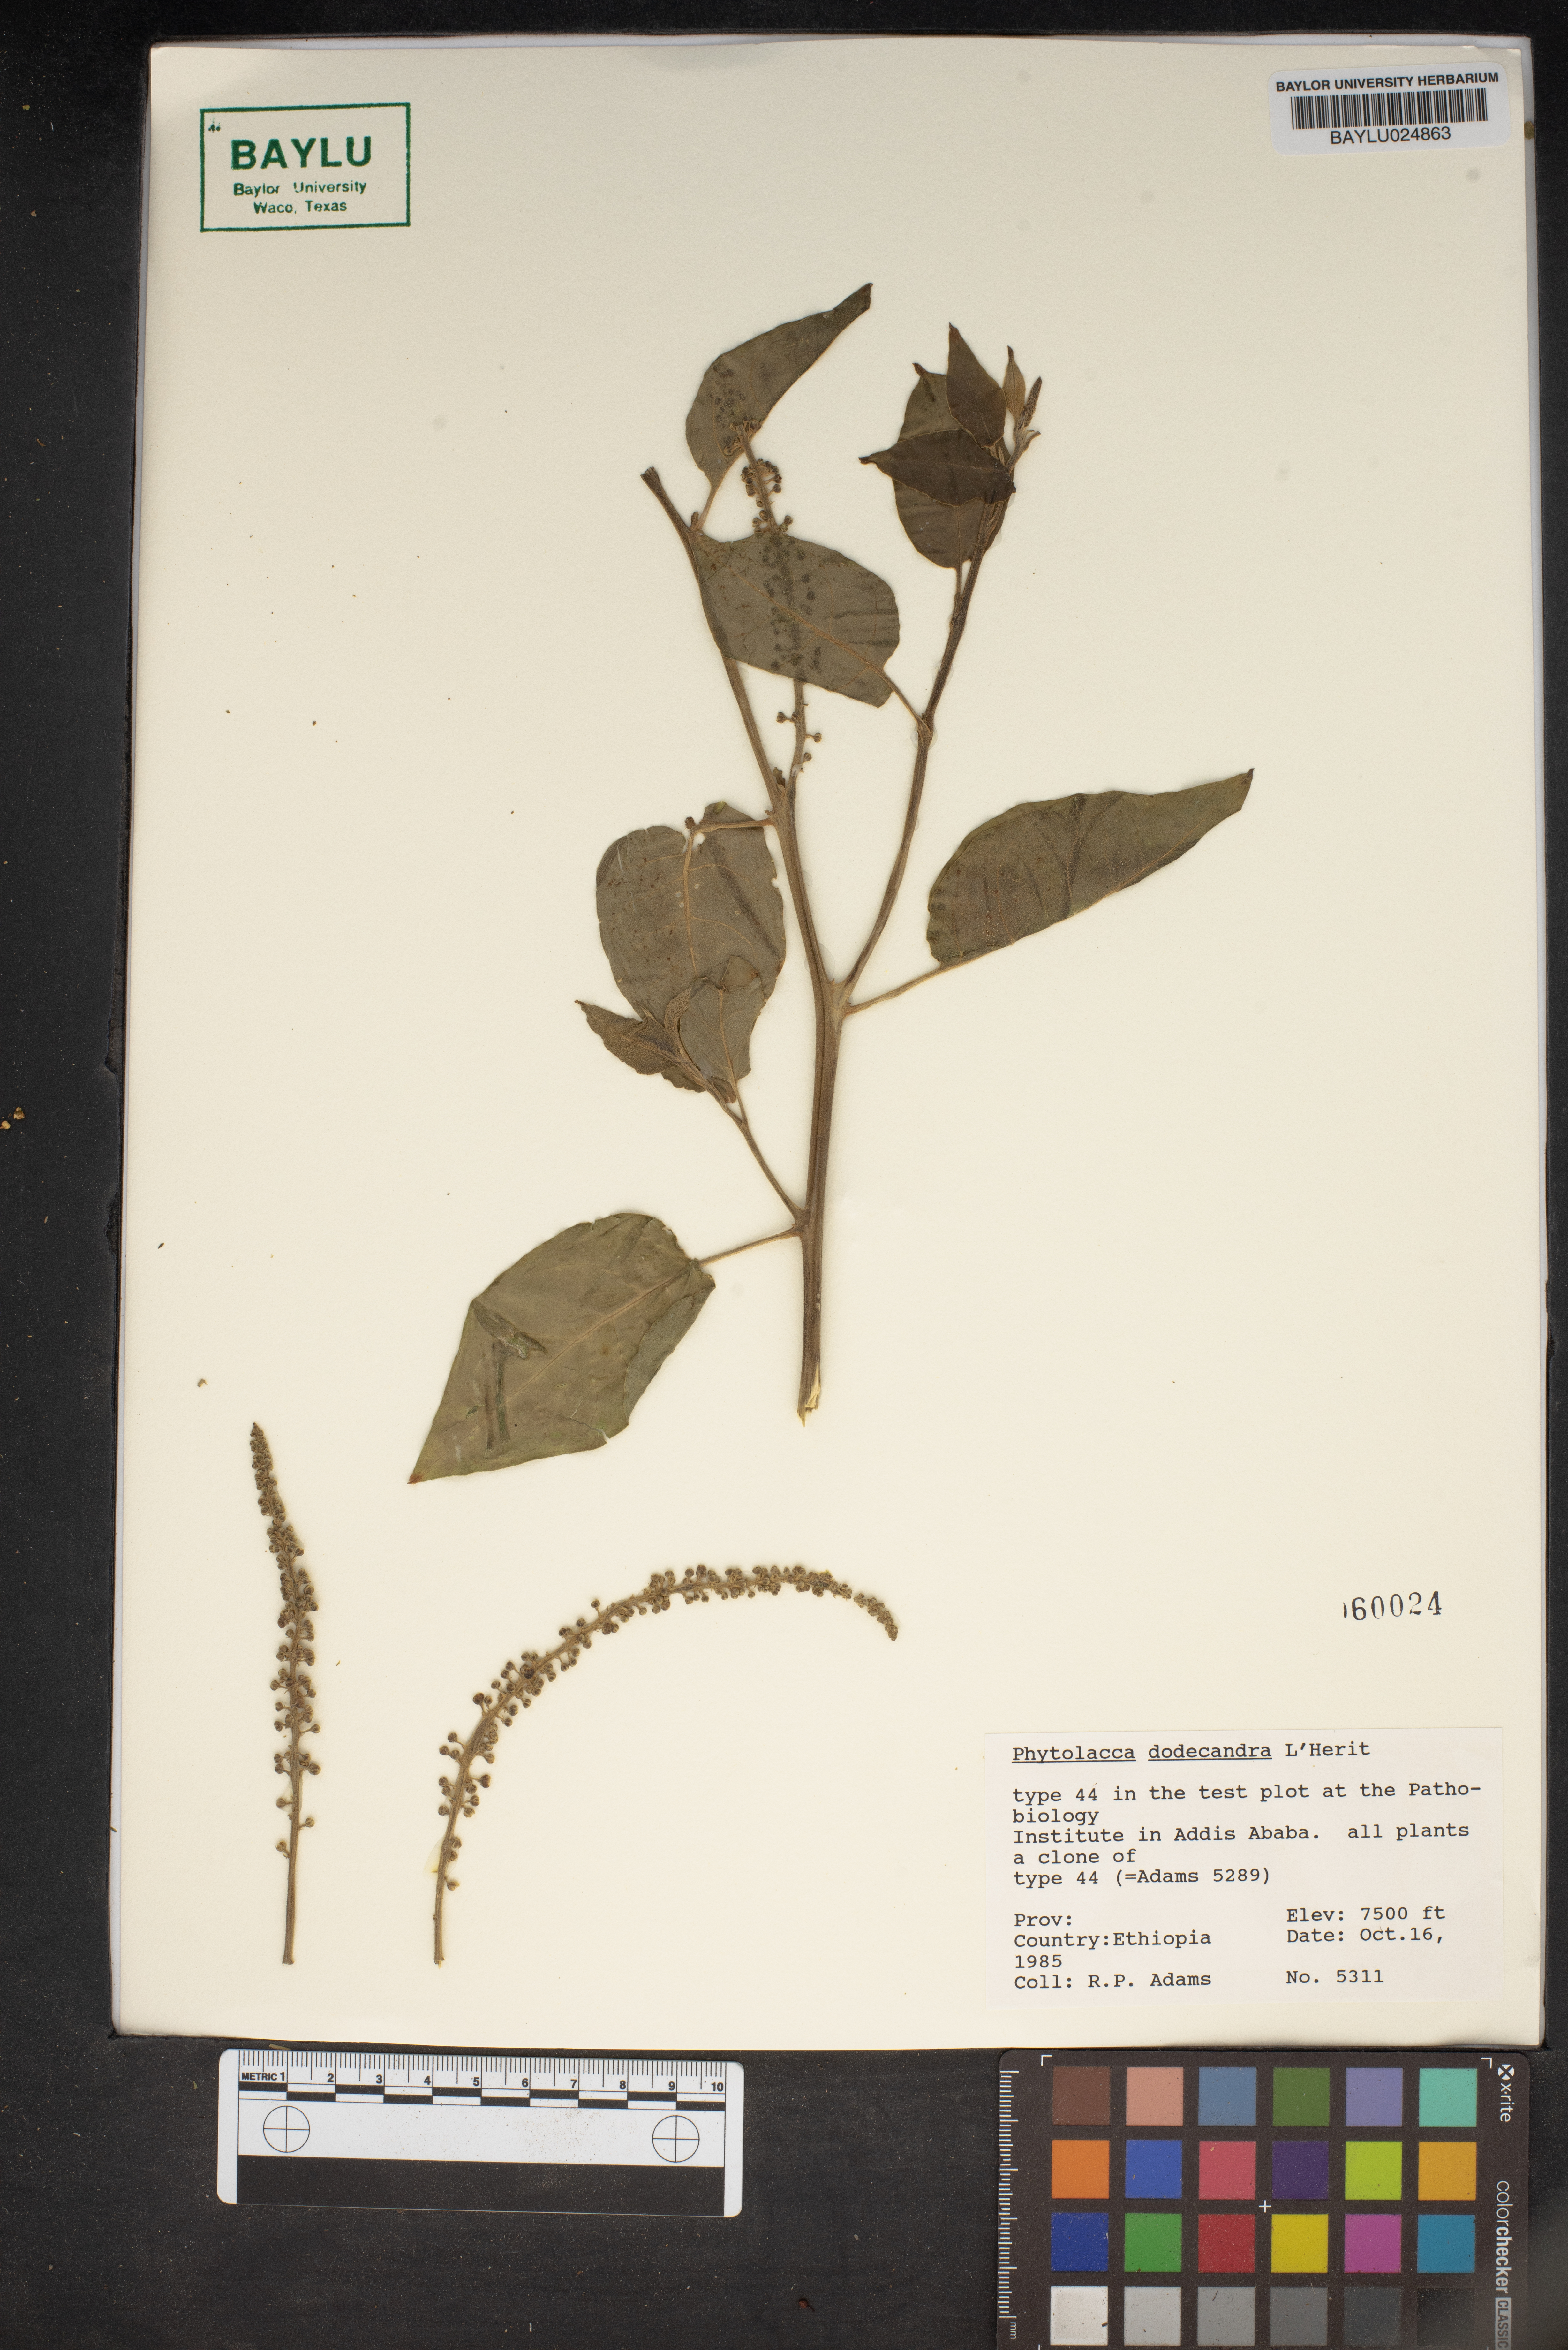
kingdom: Plantae
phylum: Tracheophyta
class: Magnoliopsida
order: Caryophyllales
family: Phytolaccaceae
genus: Phytolacca
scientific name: Phytolacca dodecandra
